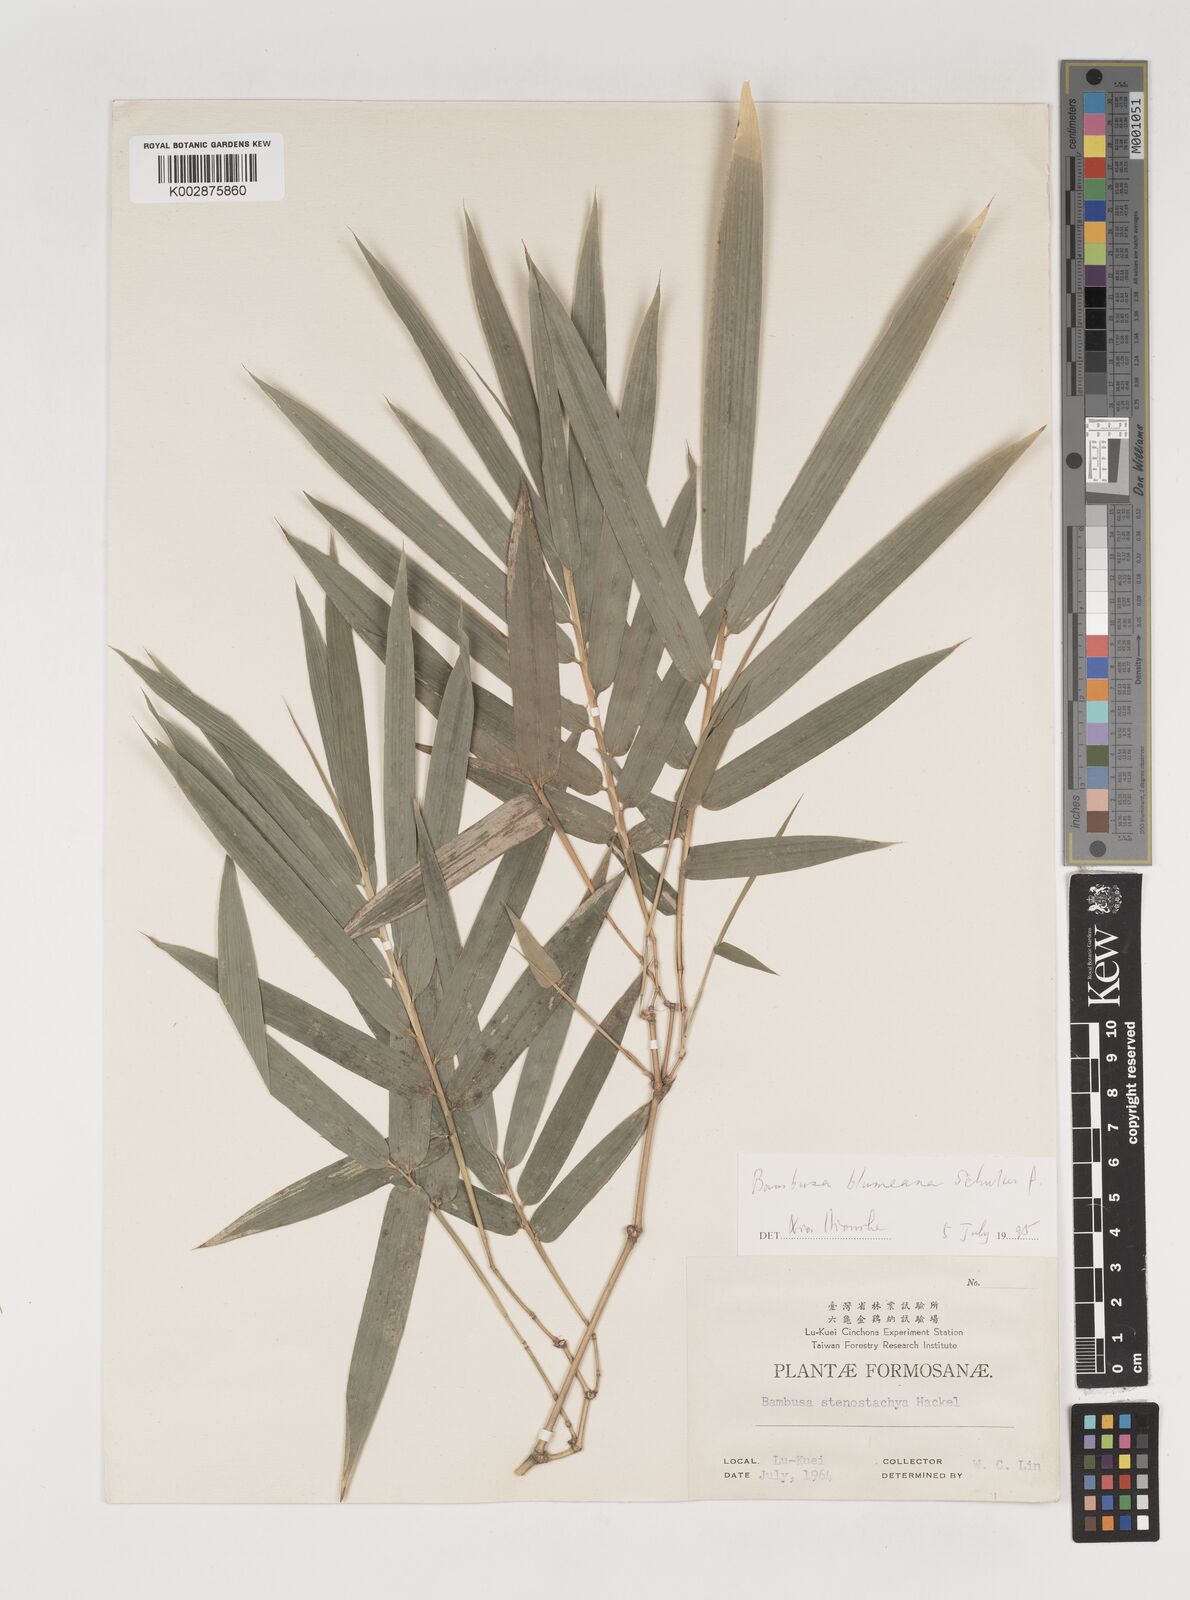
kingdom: Plantae
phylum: Tracheophyta
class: Liliopsida
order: Poales
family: Poaceae
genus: Bambusa
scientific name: Bambusa spinosa
